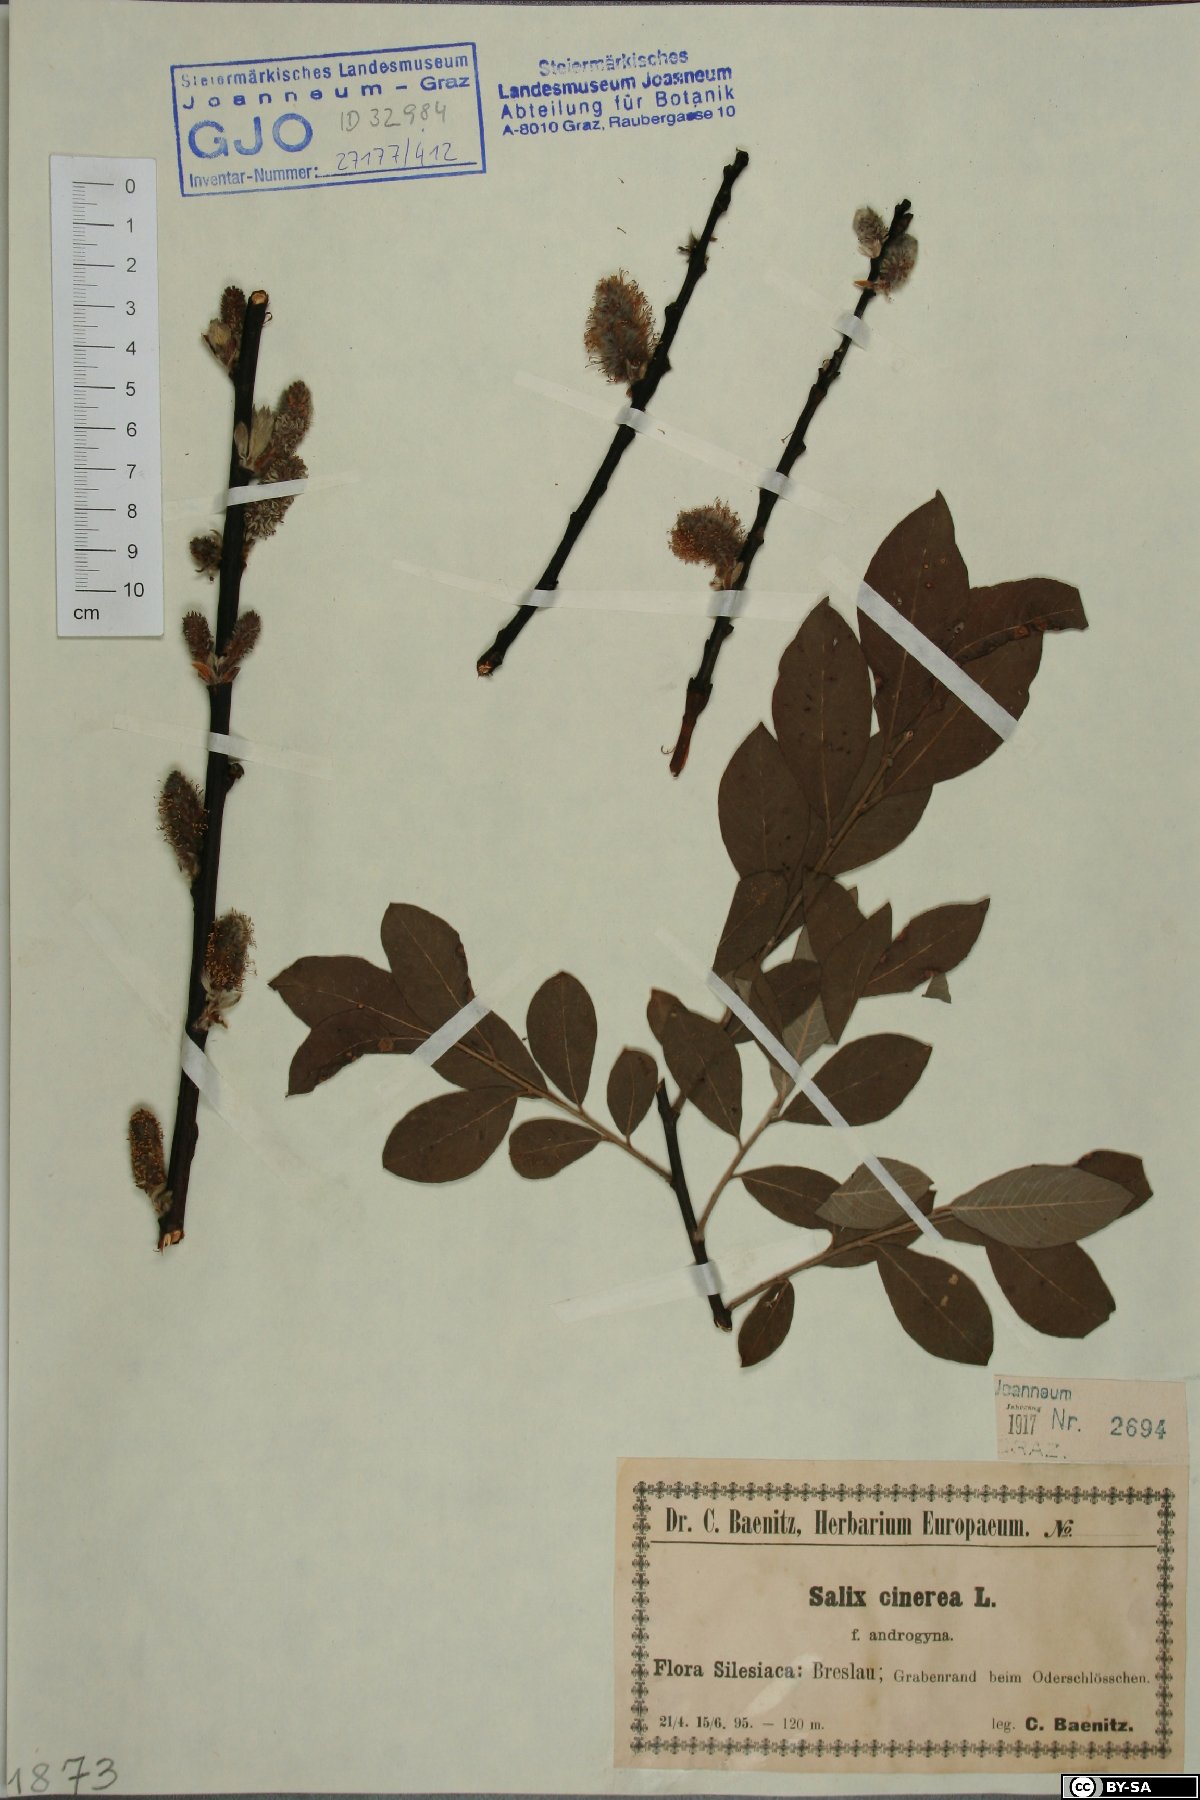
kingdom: Plantae
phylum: Tracheophyta
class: Magnoliopsida
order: Malpighiales
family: Salicaceae
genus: Salix
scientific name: Salix cinerea
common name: Common sallow
